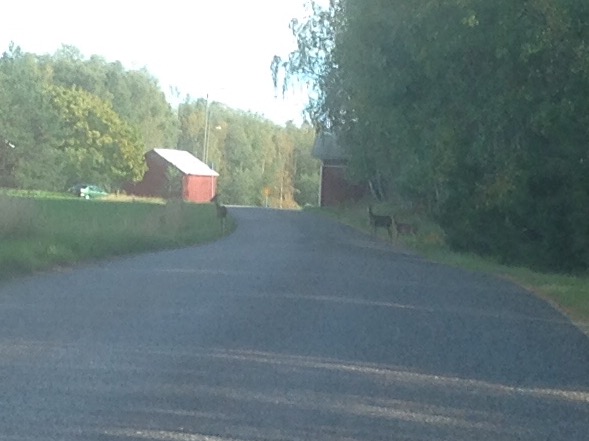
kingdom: Animalia
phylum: Chordata
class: Mammalia
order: Artiodactyla
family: Cervidae
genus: Odocoileus
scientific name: Odocoileus virginianus
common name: White-tailed deer
